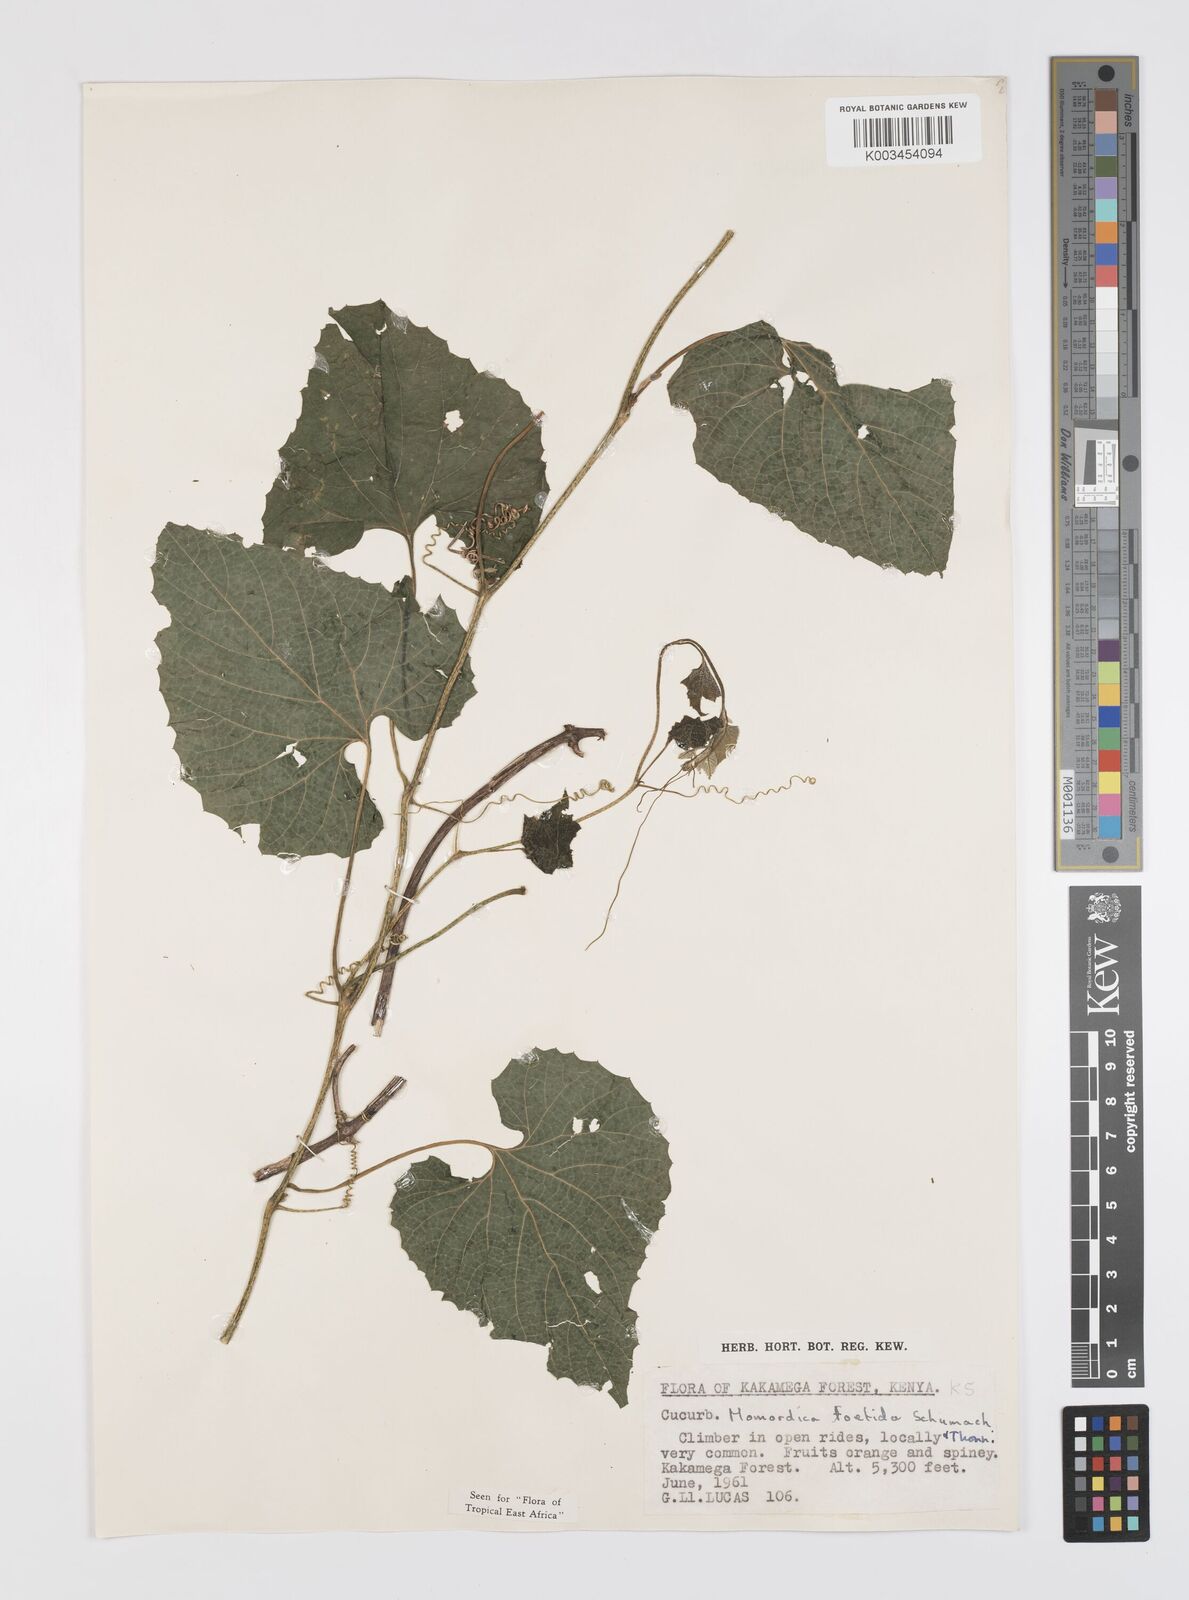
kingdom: Plantae
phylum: Tracheophyta
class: Magnoliopsida
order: Cucurbitales
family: Cucurbitaceae
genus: Momordica
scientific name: Momordica foetida
